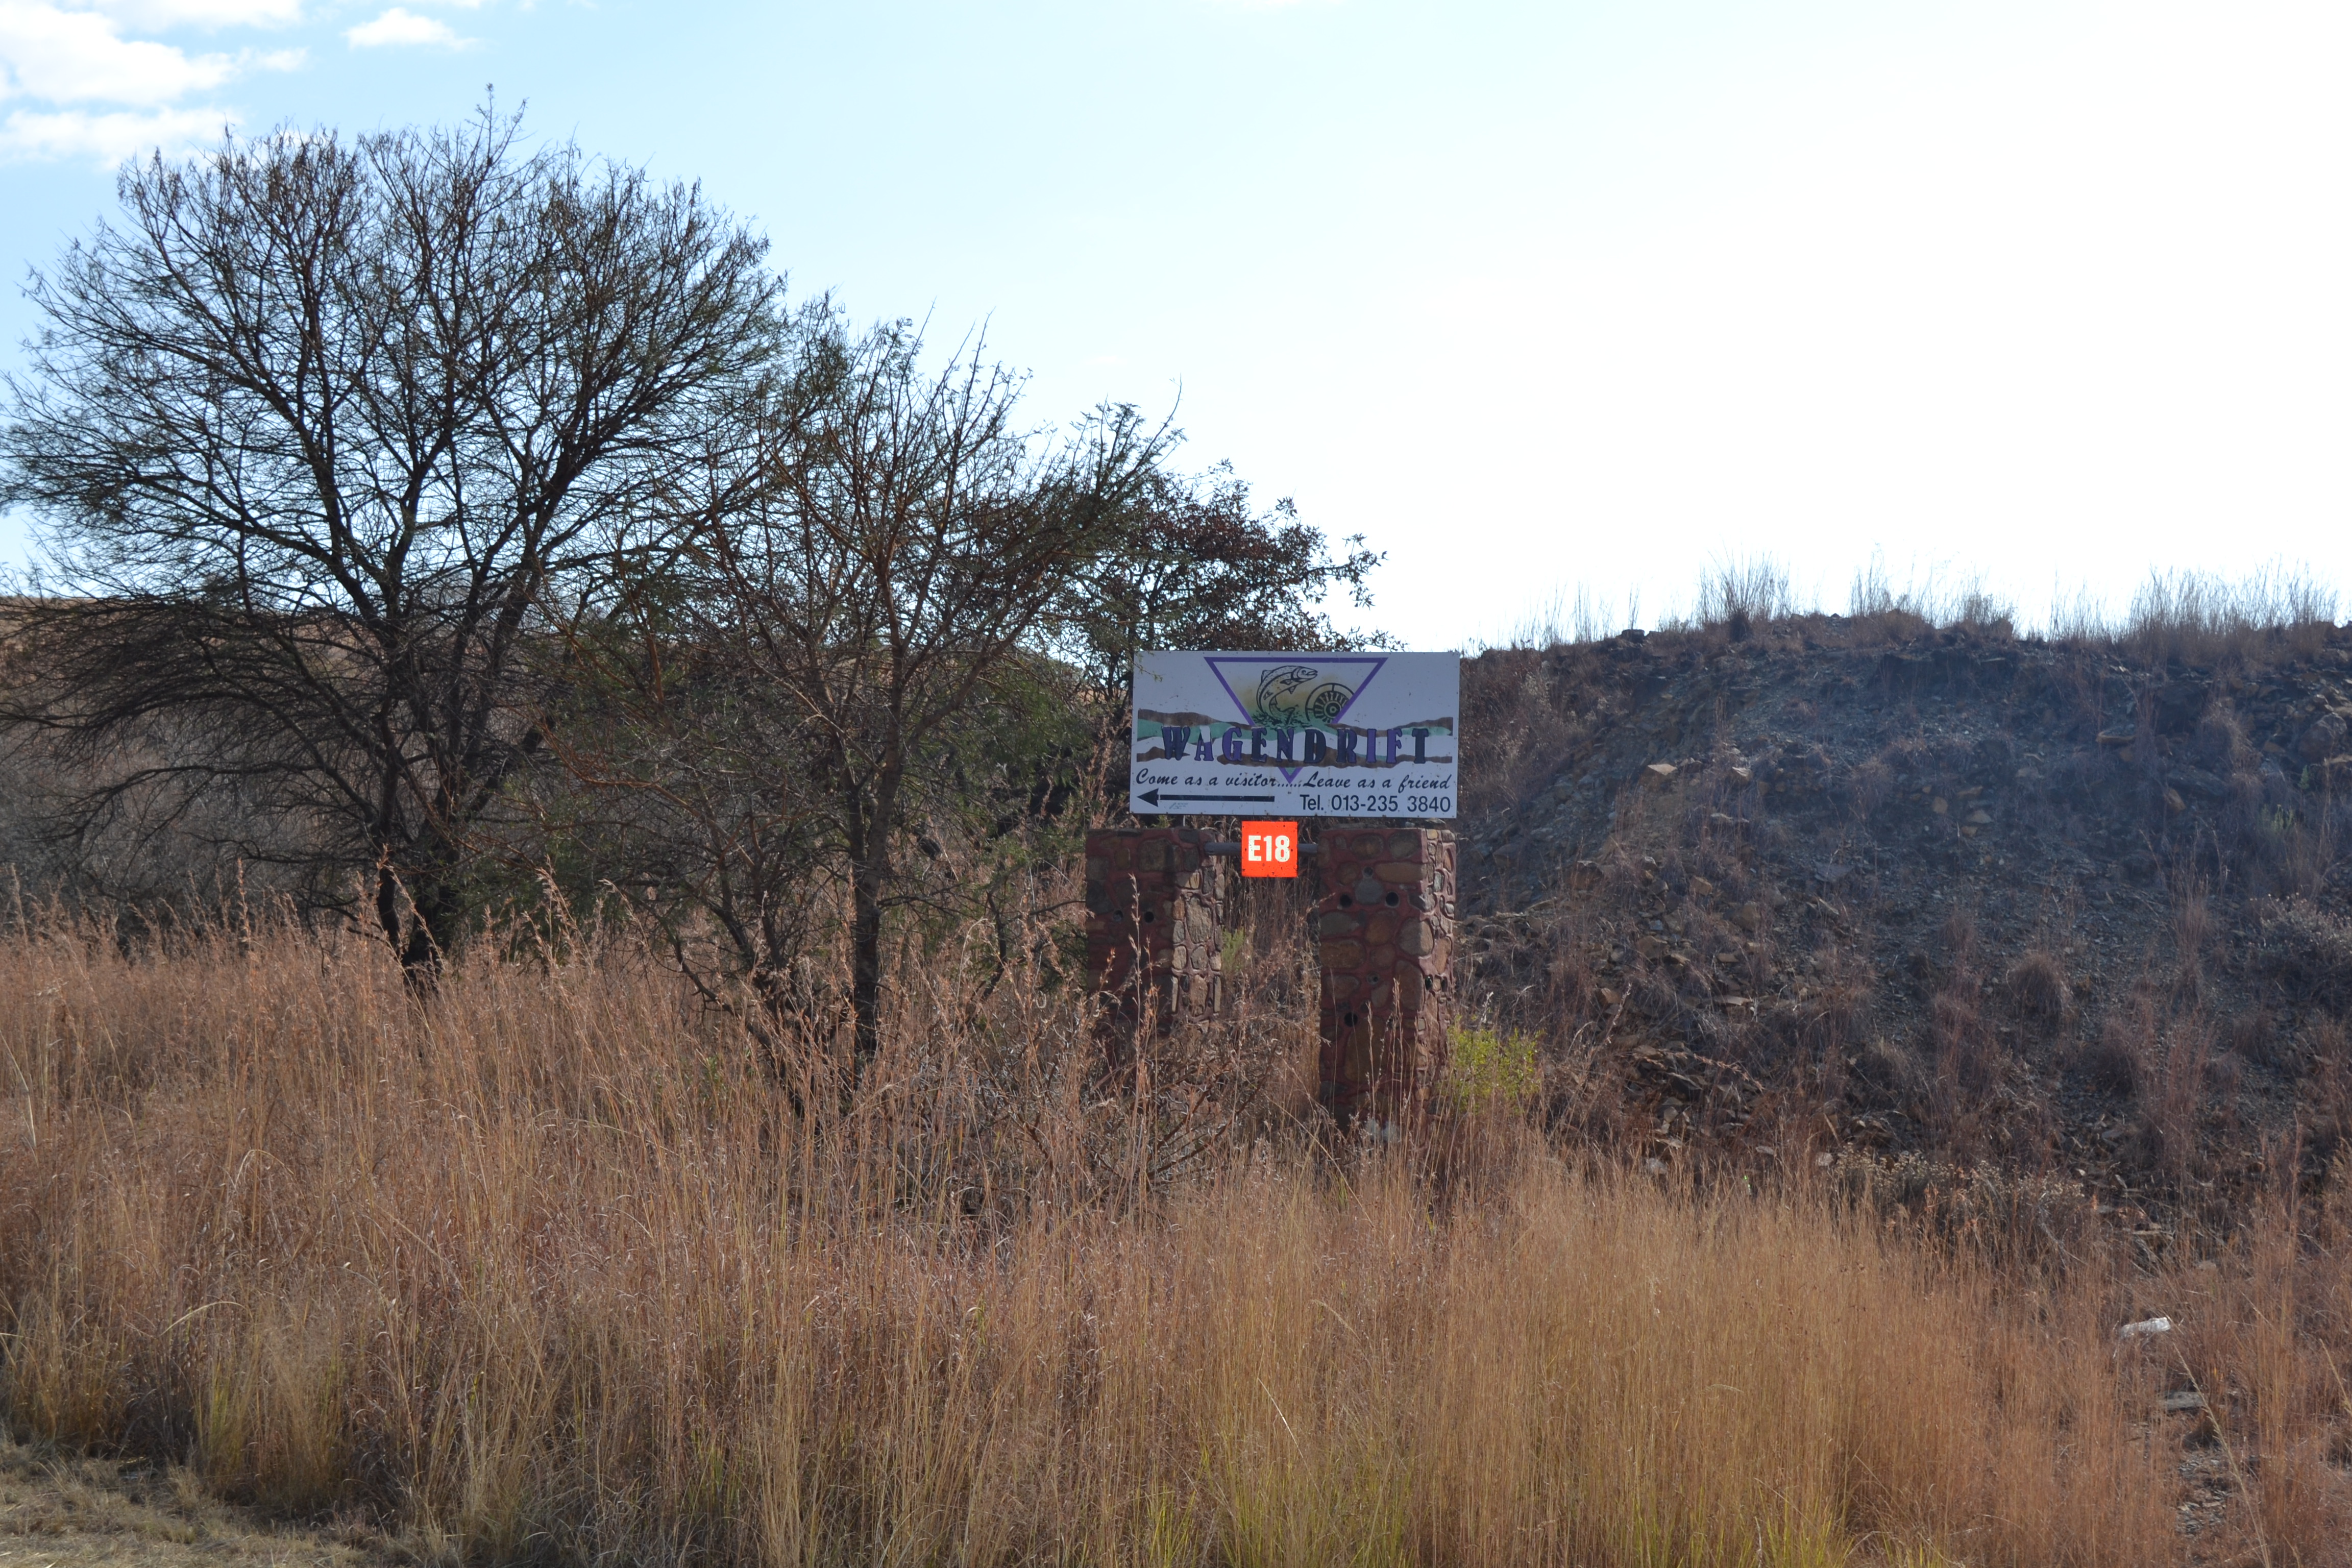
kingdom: Animalia
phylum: Chordata
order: Cypriniformes
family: Cyprinidae
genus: Enteromius
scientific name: Enteromius anoplus
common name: Chubbyhead barb
